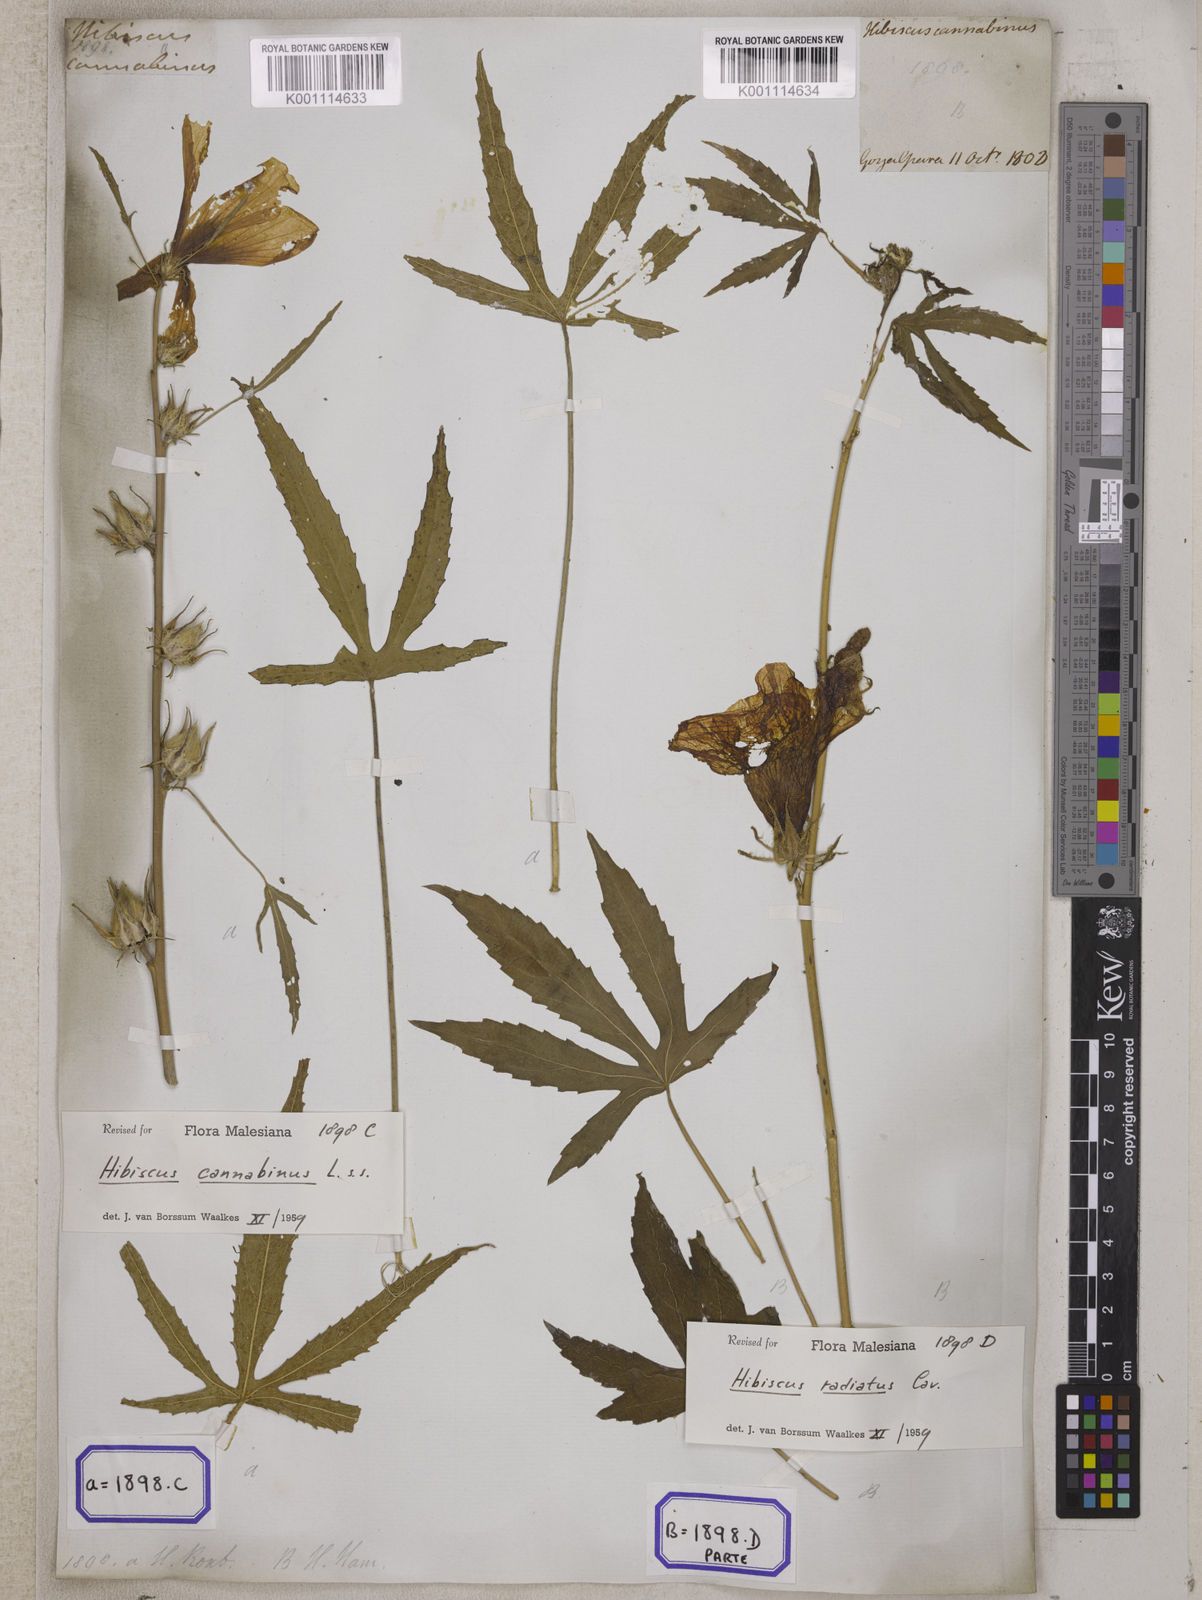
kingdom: Plantae
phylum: Tracheophyta
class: Magnoliopsida
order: Malvales
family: Malvaceae
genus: Hibiscus
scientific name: Hibiscus cannabinus
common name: Brown indianhemp
